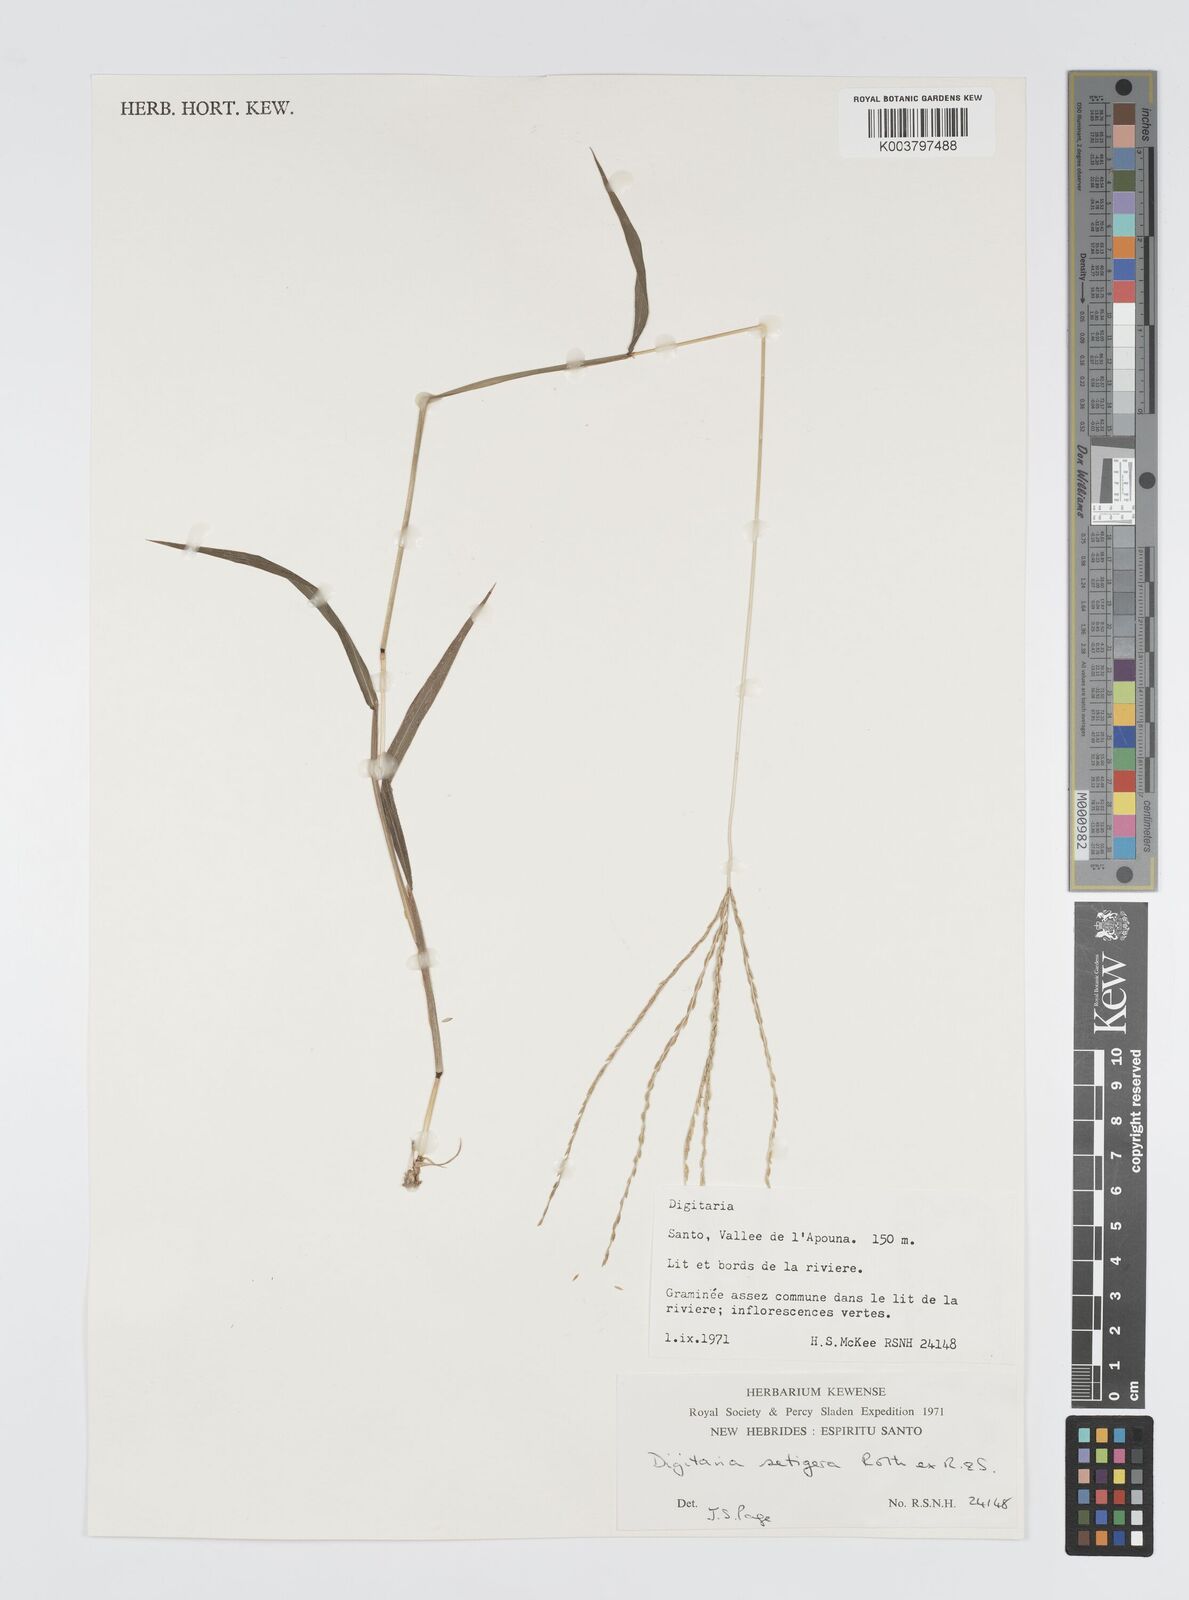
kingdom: Plantae
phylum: Tracheophyta
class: Liliopsida
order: Poales
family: Poaceae
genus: Digitaria
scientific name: Digitaria setigera
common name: East indian crabgrass
